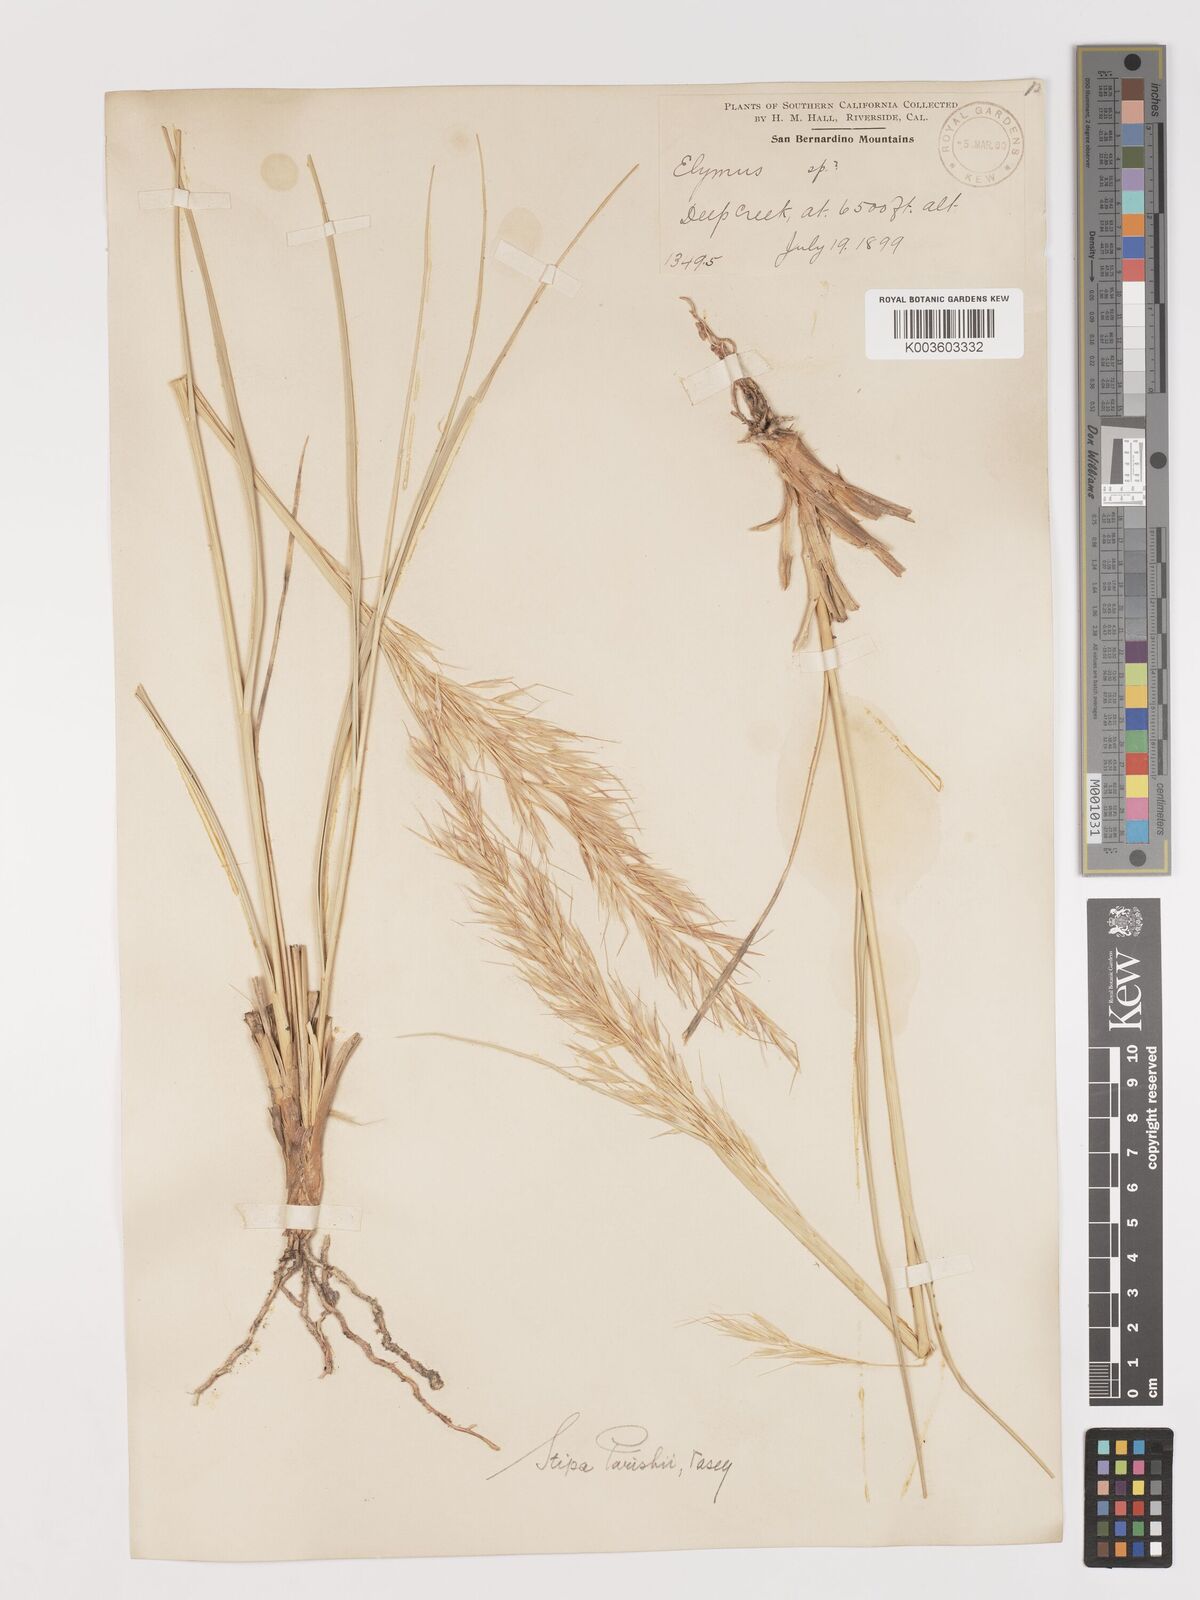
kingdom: Plantae
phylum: Tracheophyta
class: Liliopsida
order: Poales
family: Poaceae
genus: Hesperostipa
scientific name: Hesperostipa comata
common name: Needle-and-thread grass
